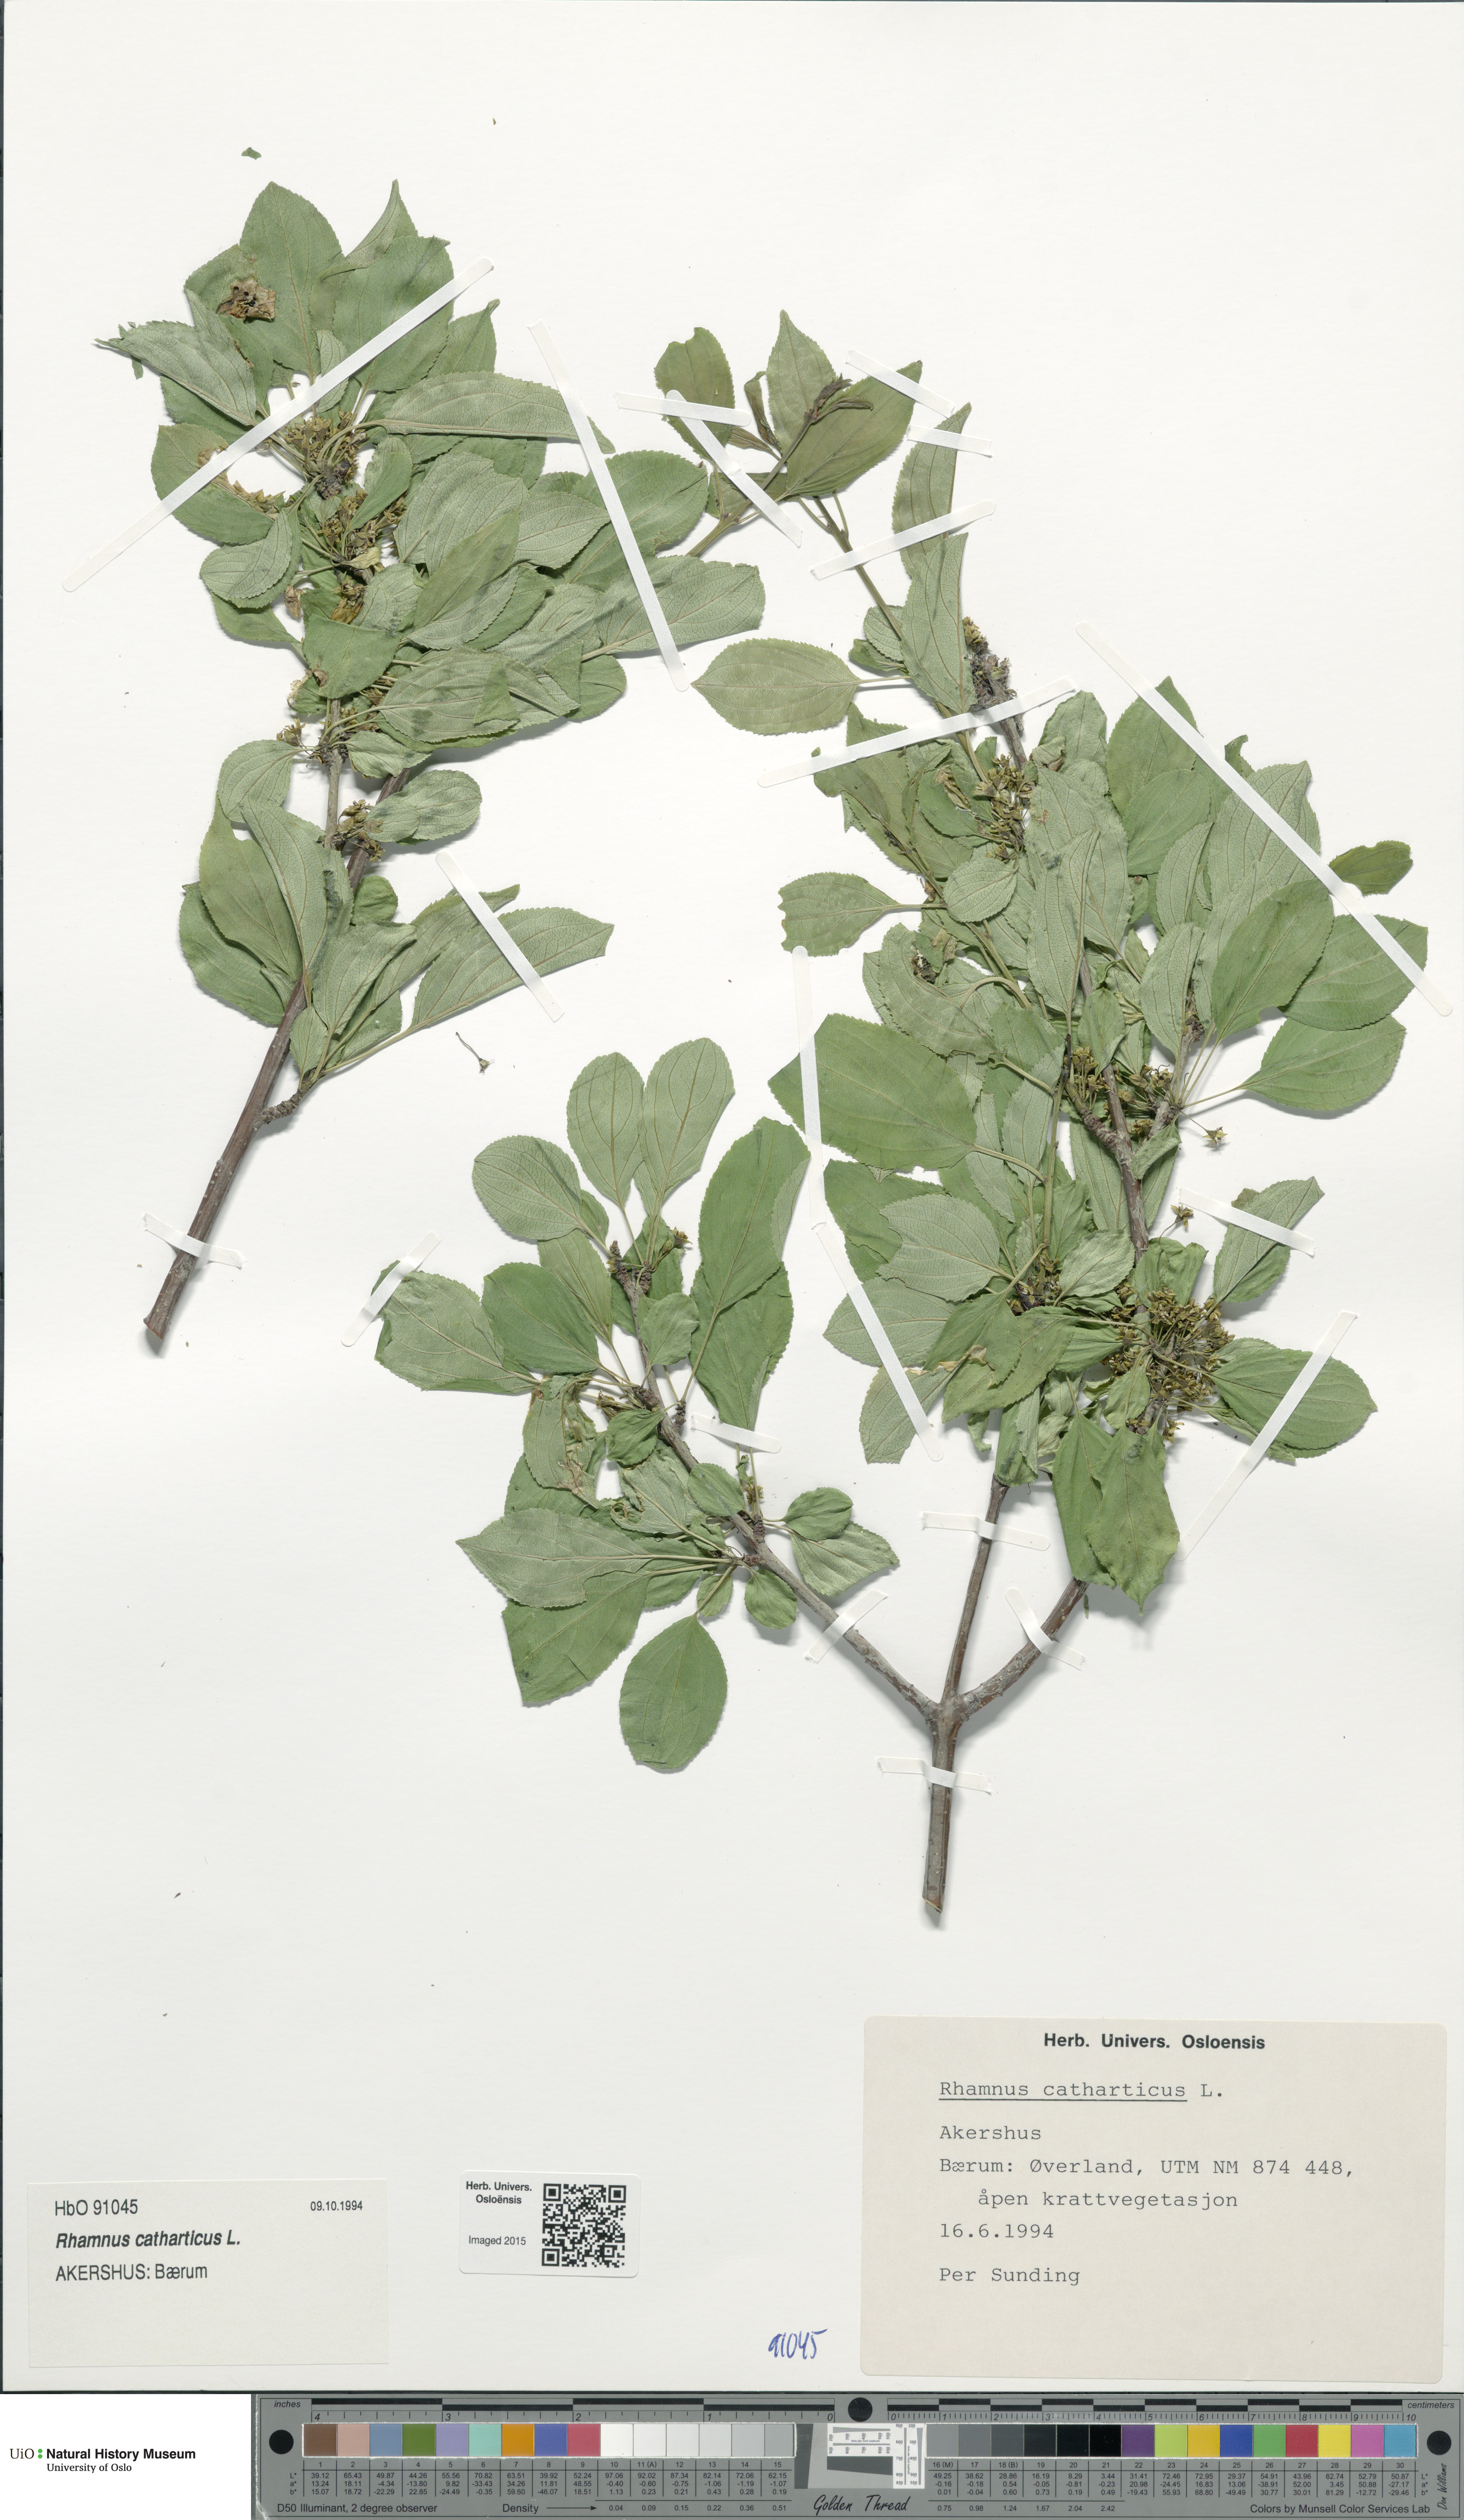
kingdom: Plantae
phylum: Tracheophyta
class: Magnoliopsida
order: Rosales
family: Rhamnaceae
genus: Rhamnus
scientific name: Rhamnus cathartica
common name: Common buckthorn
